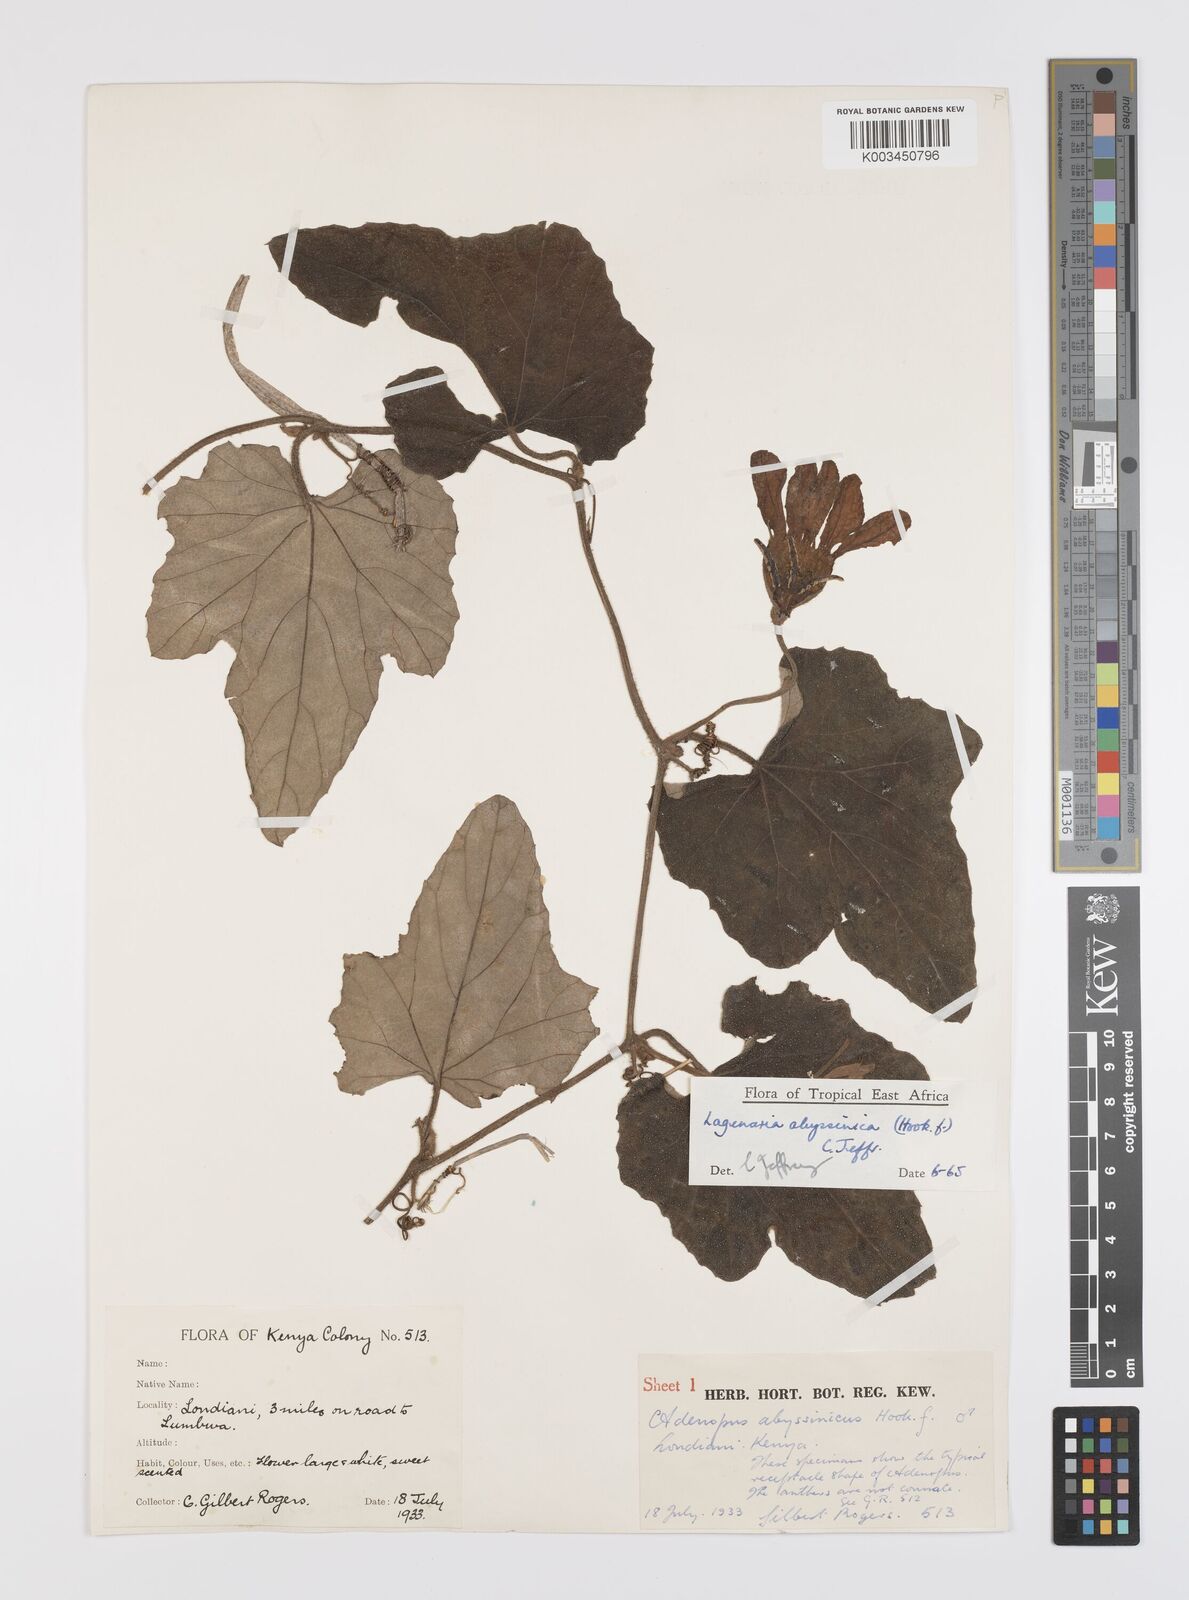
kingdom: Plantae
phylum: Tracheophyta
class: Magnoliopsida
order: Cucurbitales
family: Cucurbitaceae
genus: Lagenaria
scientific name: Lagenaria abyssinica
